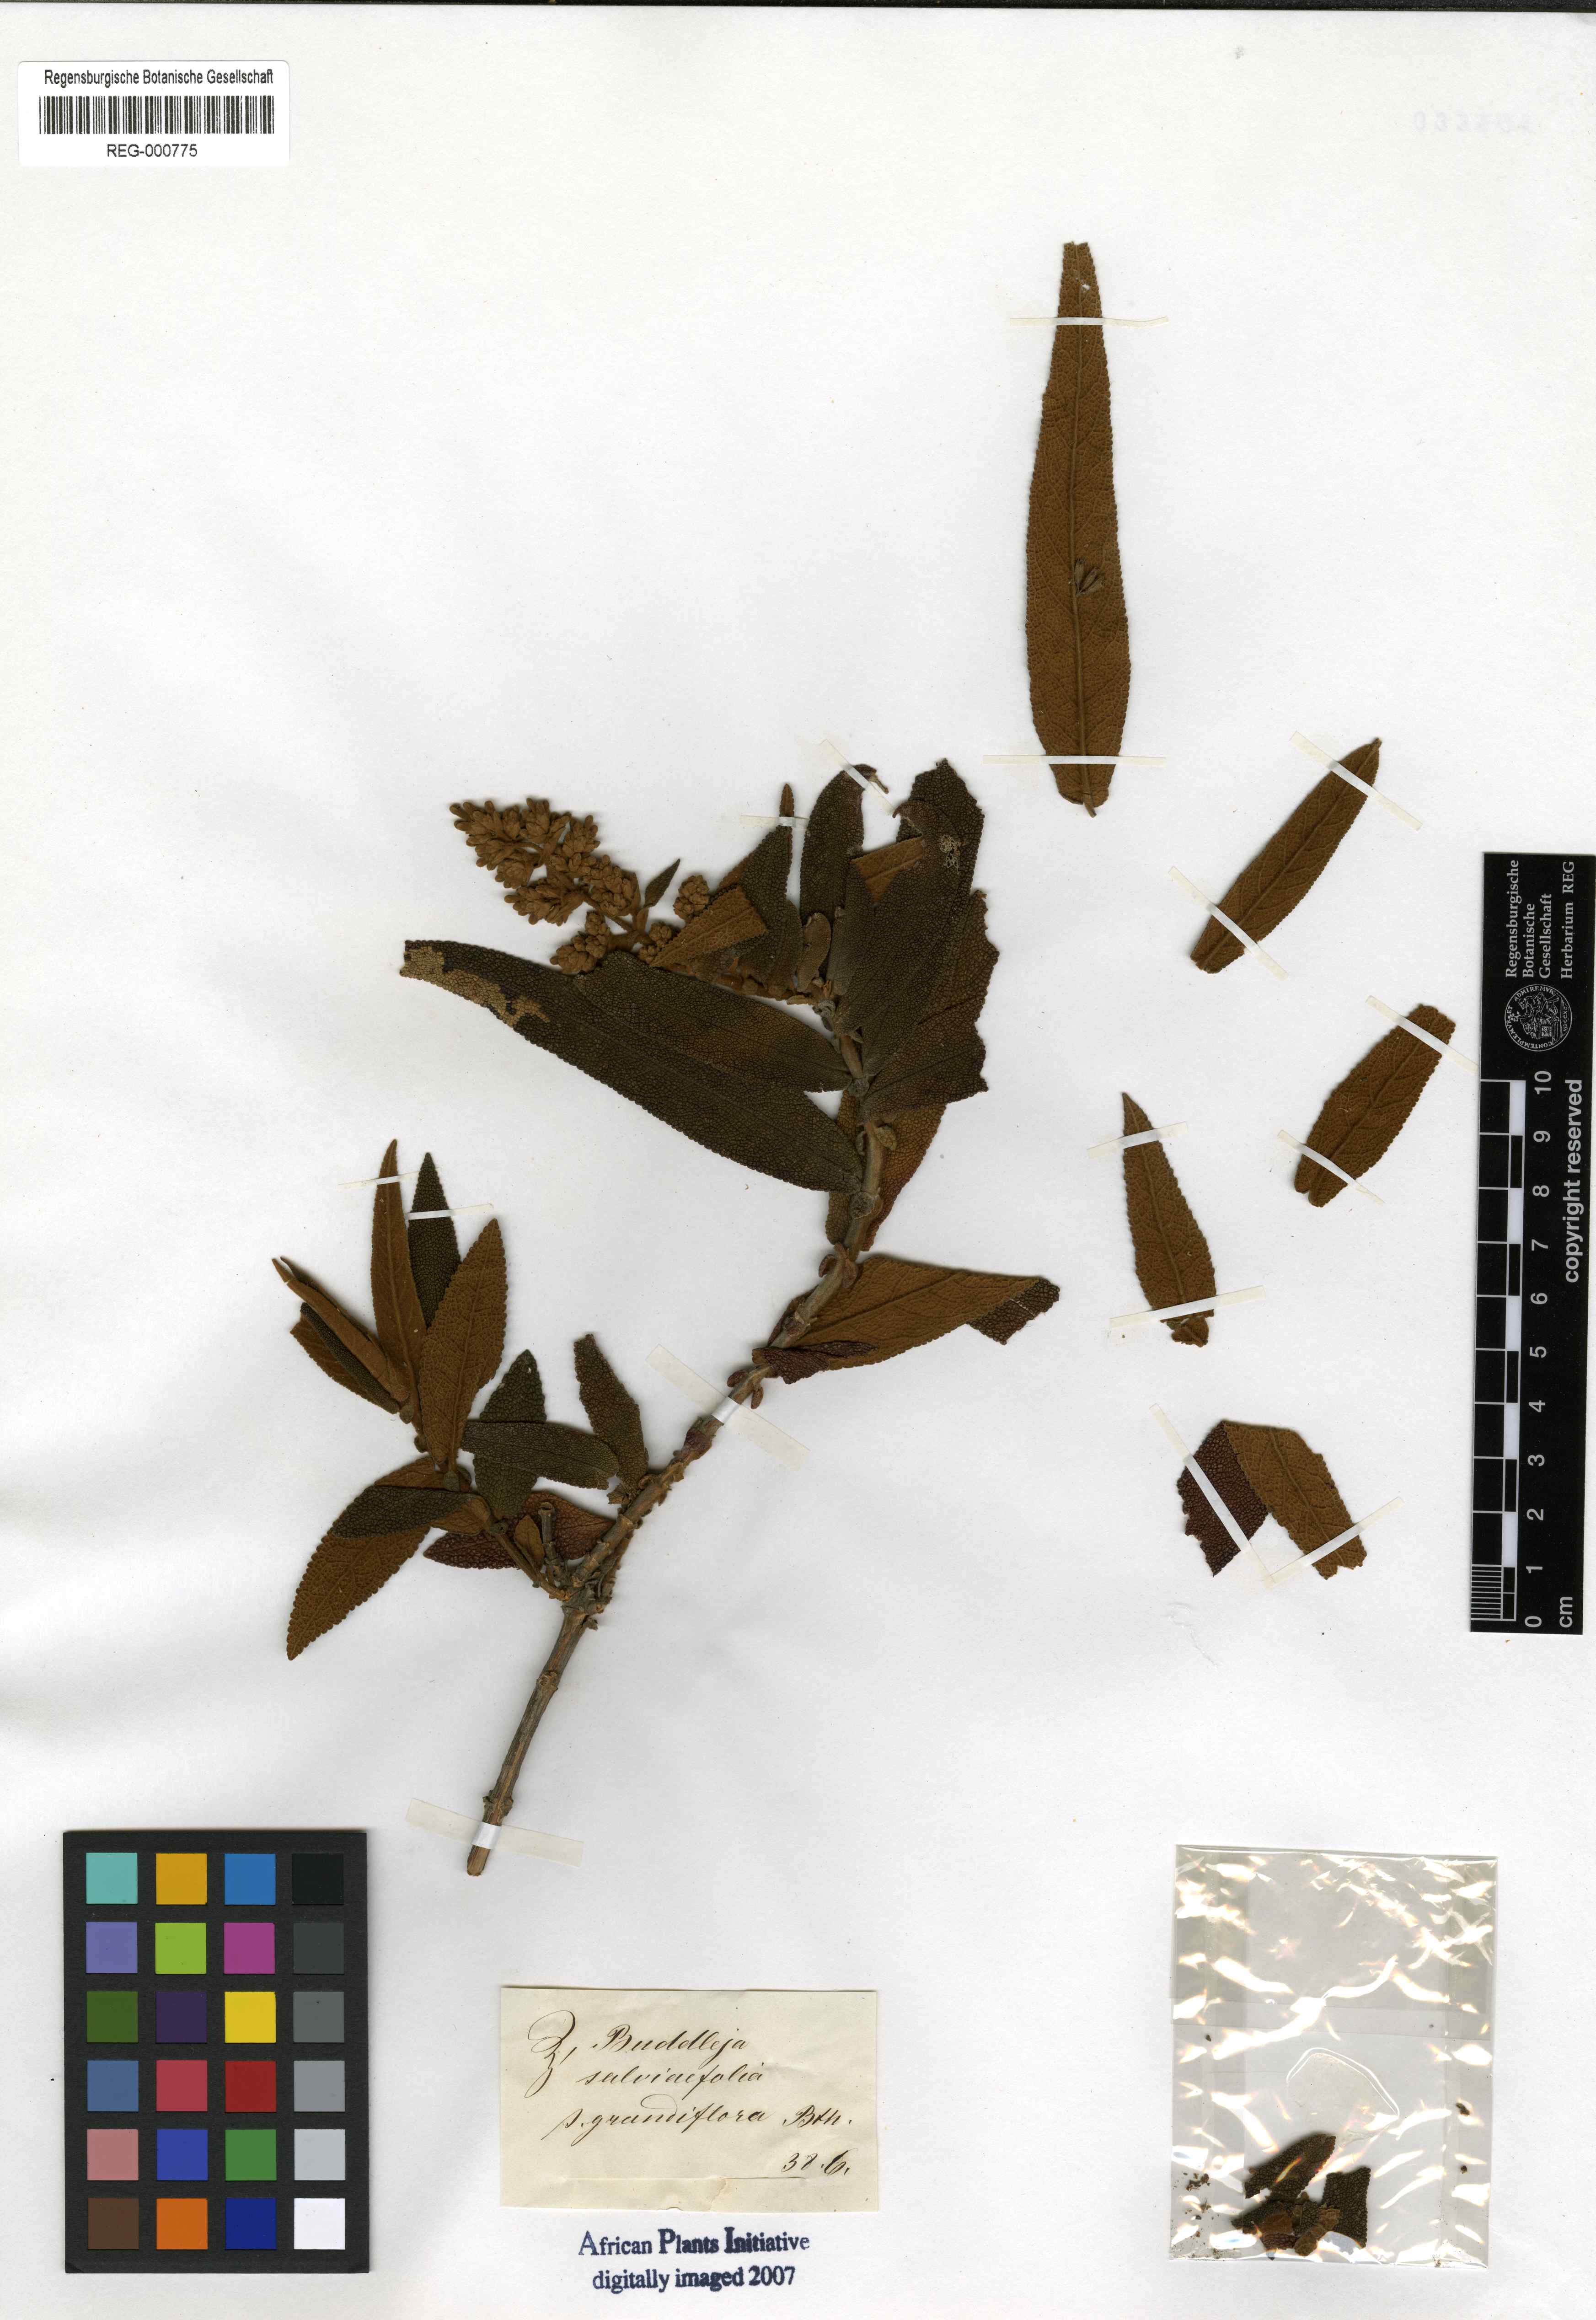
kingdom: Plantae
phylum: Tracheophyta
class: Magnoliopsida
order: Lamiales
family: Scrophulariaceae
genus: Buddleja
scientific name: Buddleja salviifolia
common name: Sagewood
